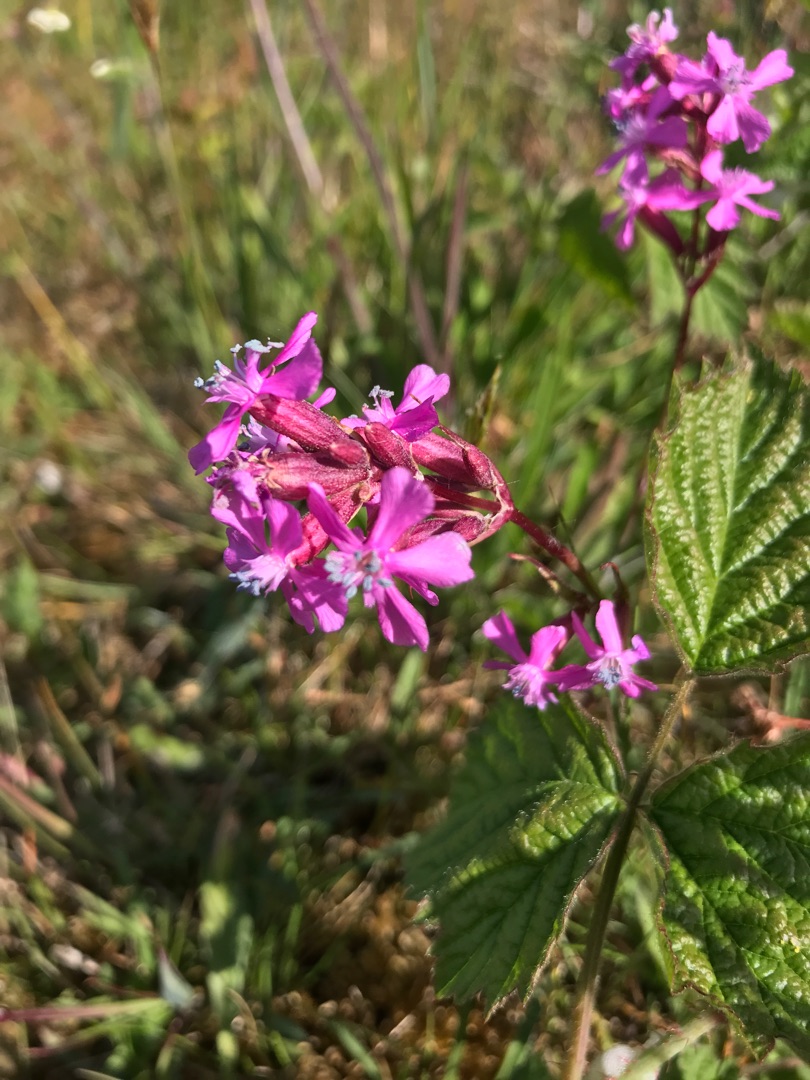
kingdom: Plantae
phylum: Tracheophyta
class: Magnoliopsida
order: Caryophyllales
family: Caryophyllaceae
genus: Viscaria
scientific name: Viscaria vulgaris
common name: Tjærenellike
